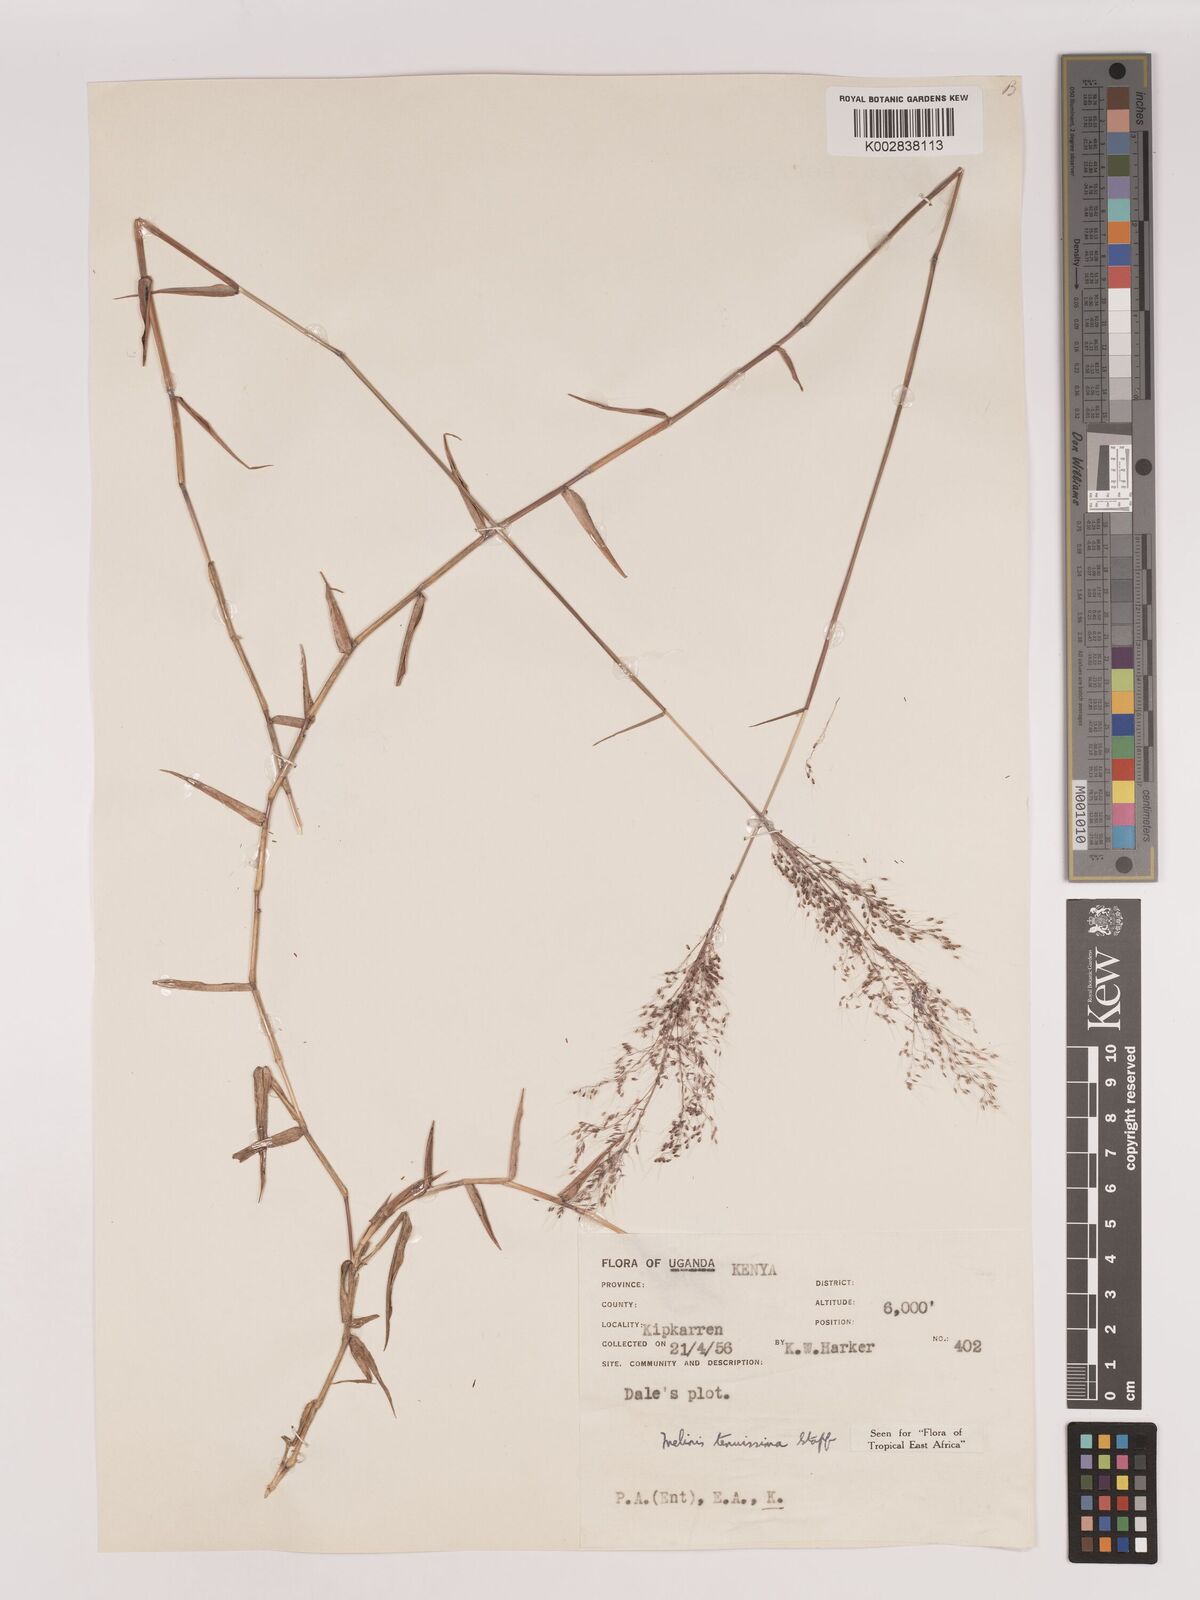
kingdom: Plantae
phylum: Tracheophyta
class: Liliopsida
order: Poales
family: Poaceae
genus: Melinis
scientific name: Melinis tenuissima
